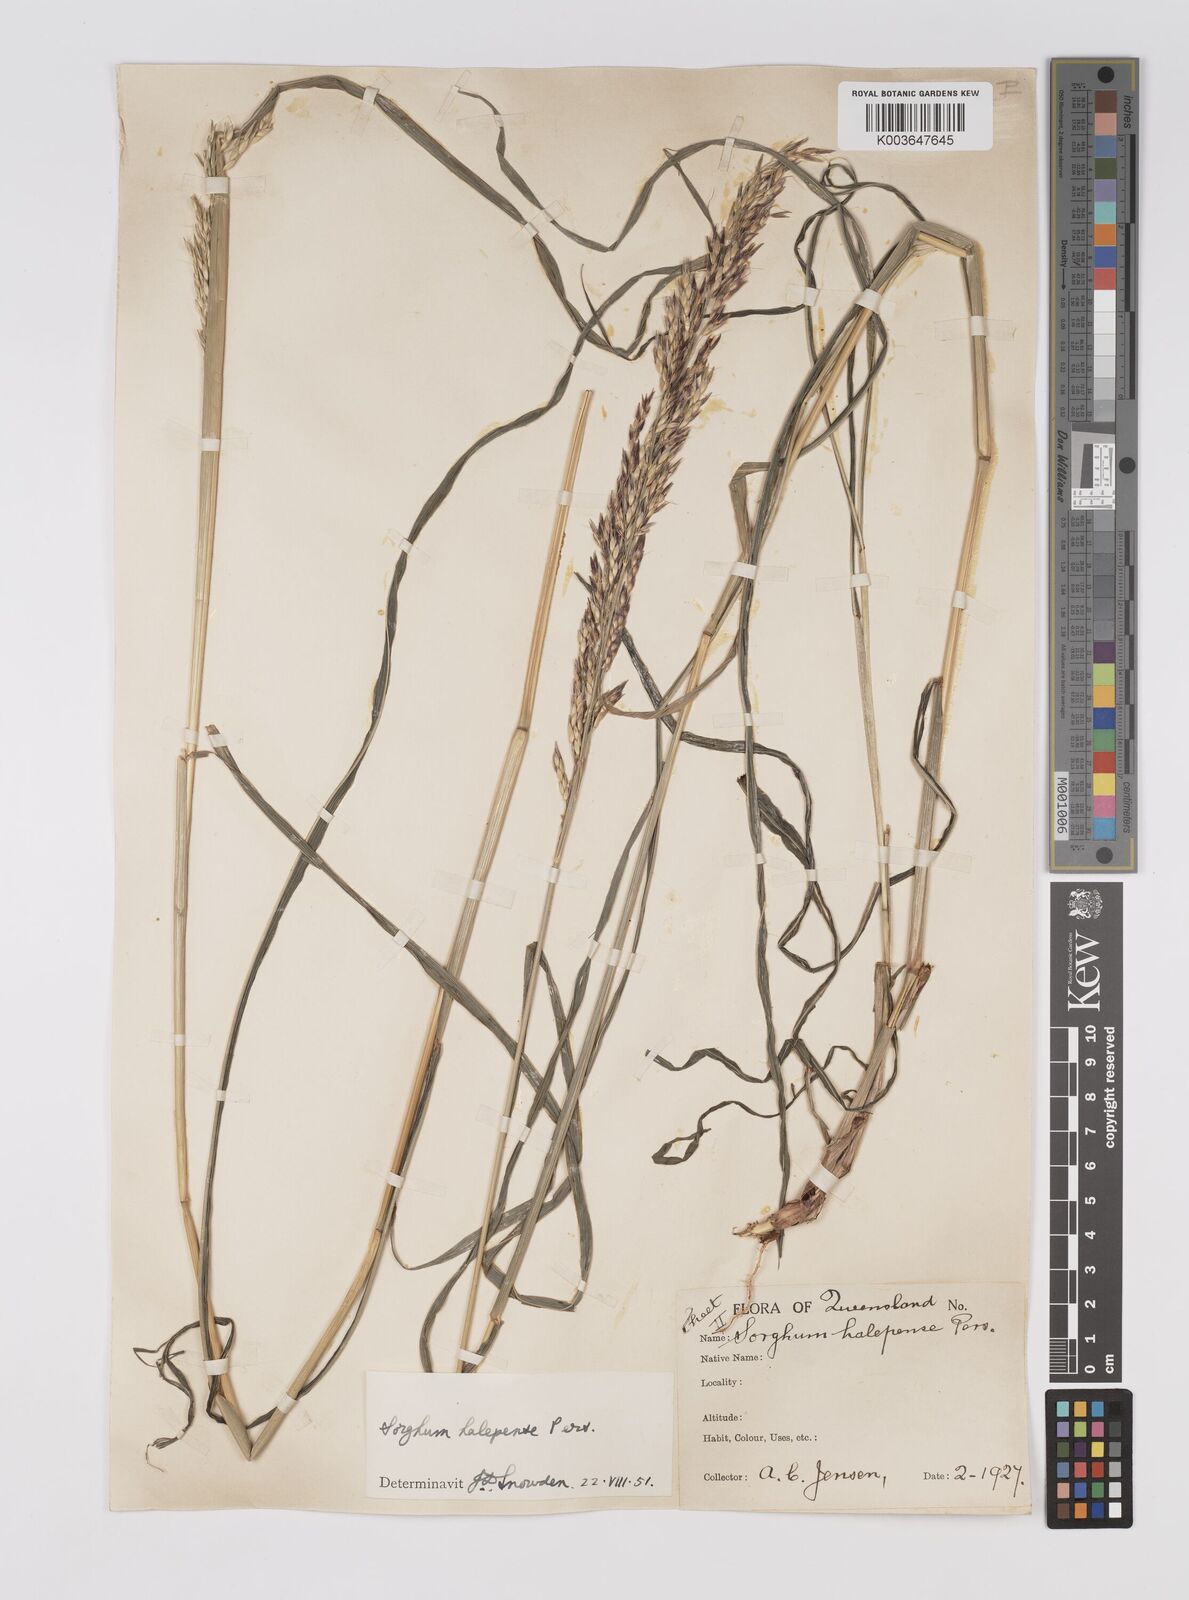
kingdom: Plantae
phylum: Tracheophyta
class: Liliopsida
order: Poales
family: Poaceae
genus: Sorghum
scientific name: Sorghum halepense
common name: Johnson-grass
